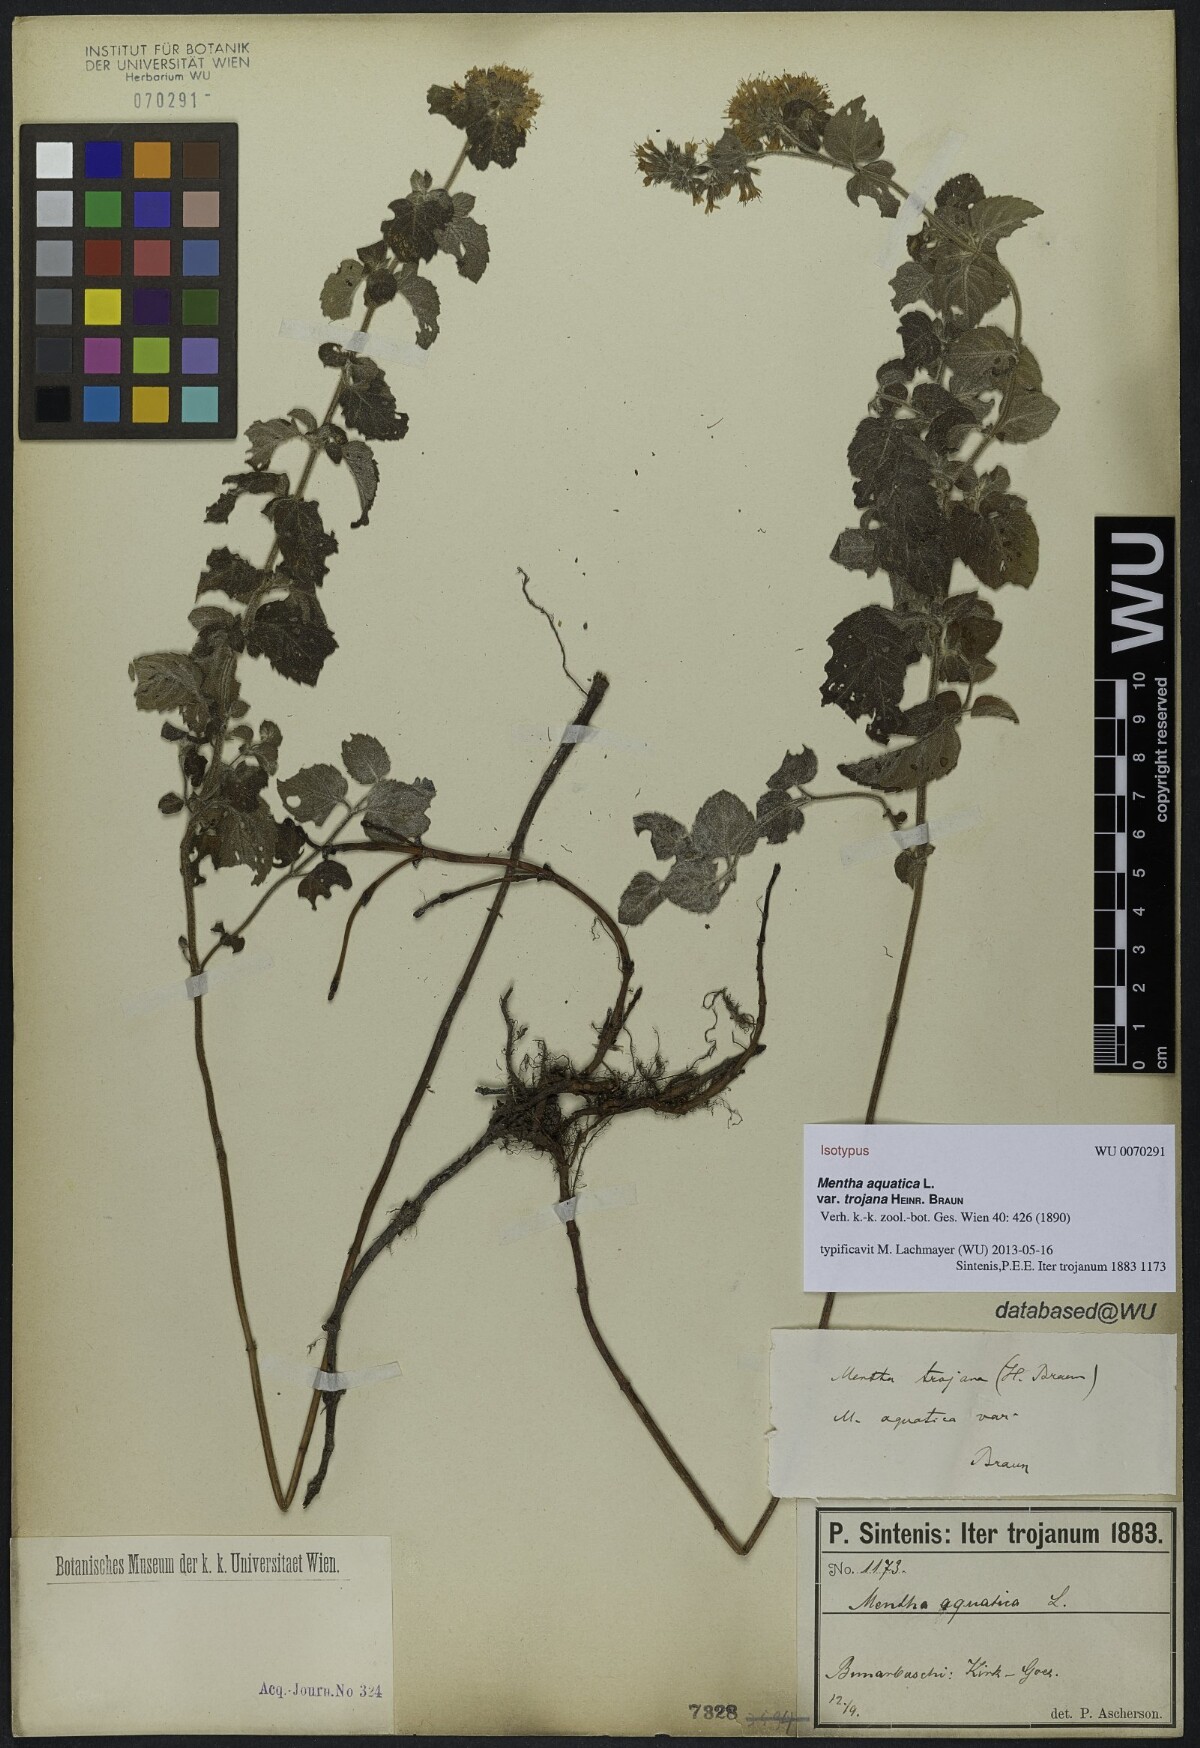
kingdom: Plantae
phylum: Tracheophyta
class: Magnoliopsida
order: Lamiales
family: Lamiaceae
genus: Mentha
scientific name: Mentha aquatica
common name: Water mint
